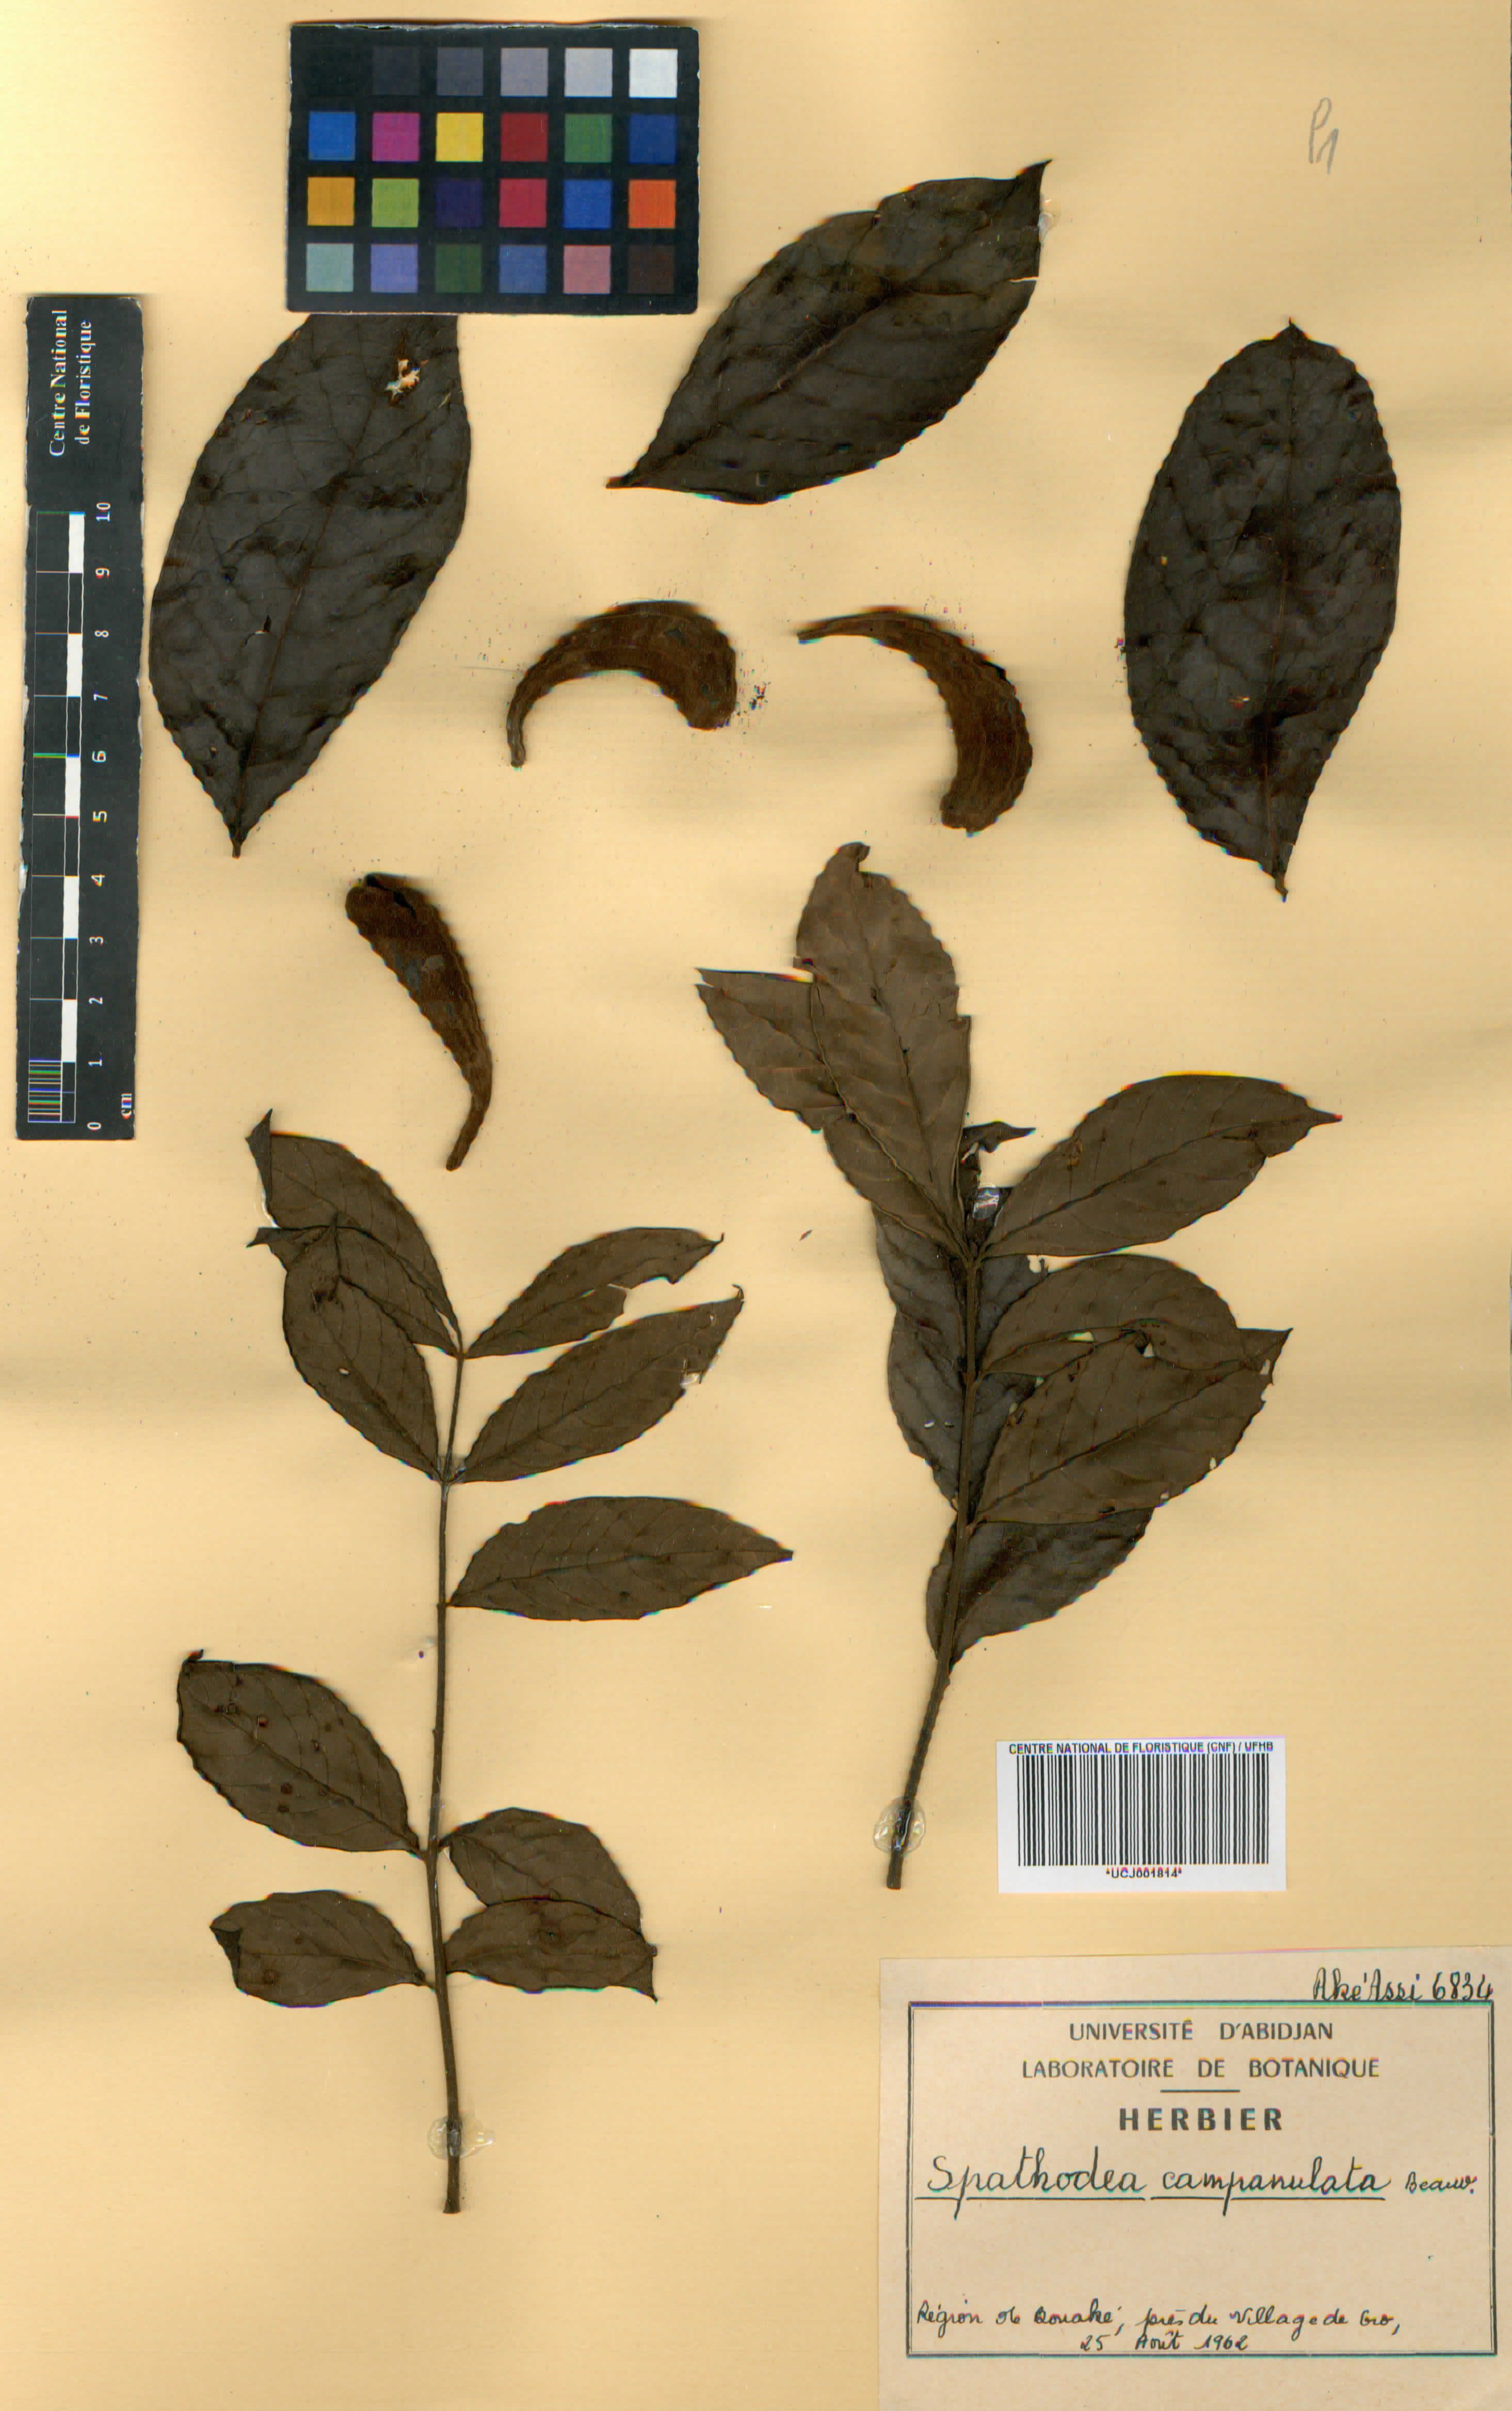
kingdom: Plantae
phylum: Tracheophyta
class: Magnoliopsida
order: Lamiales
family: Bignoniaceae
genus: Spathodea
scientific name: Spathodea campanulata
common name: African tuliptree
